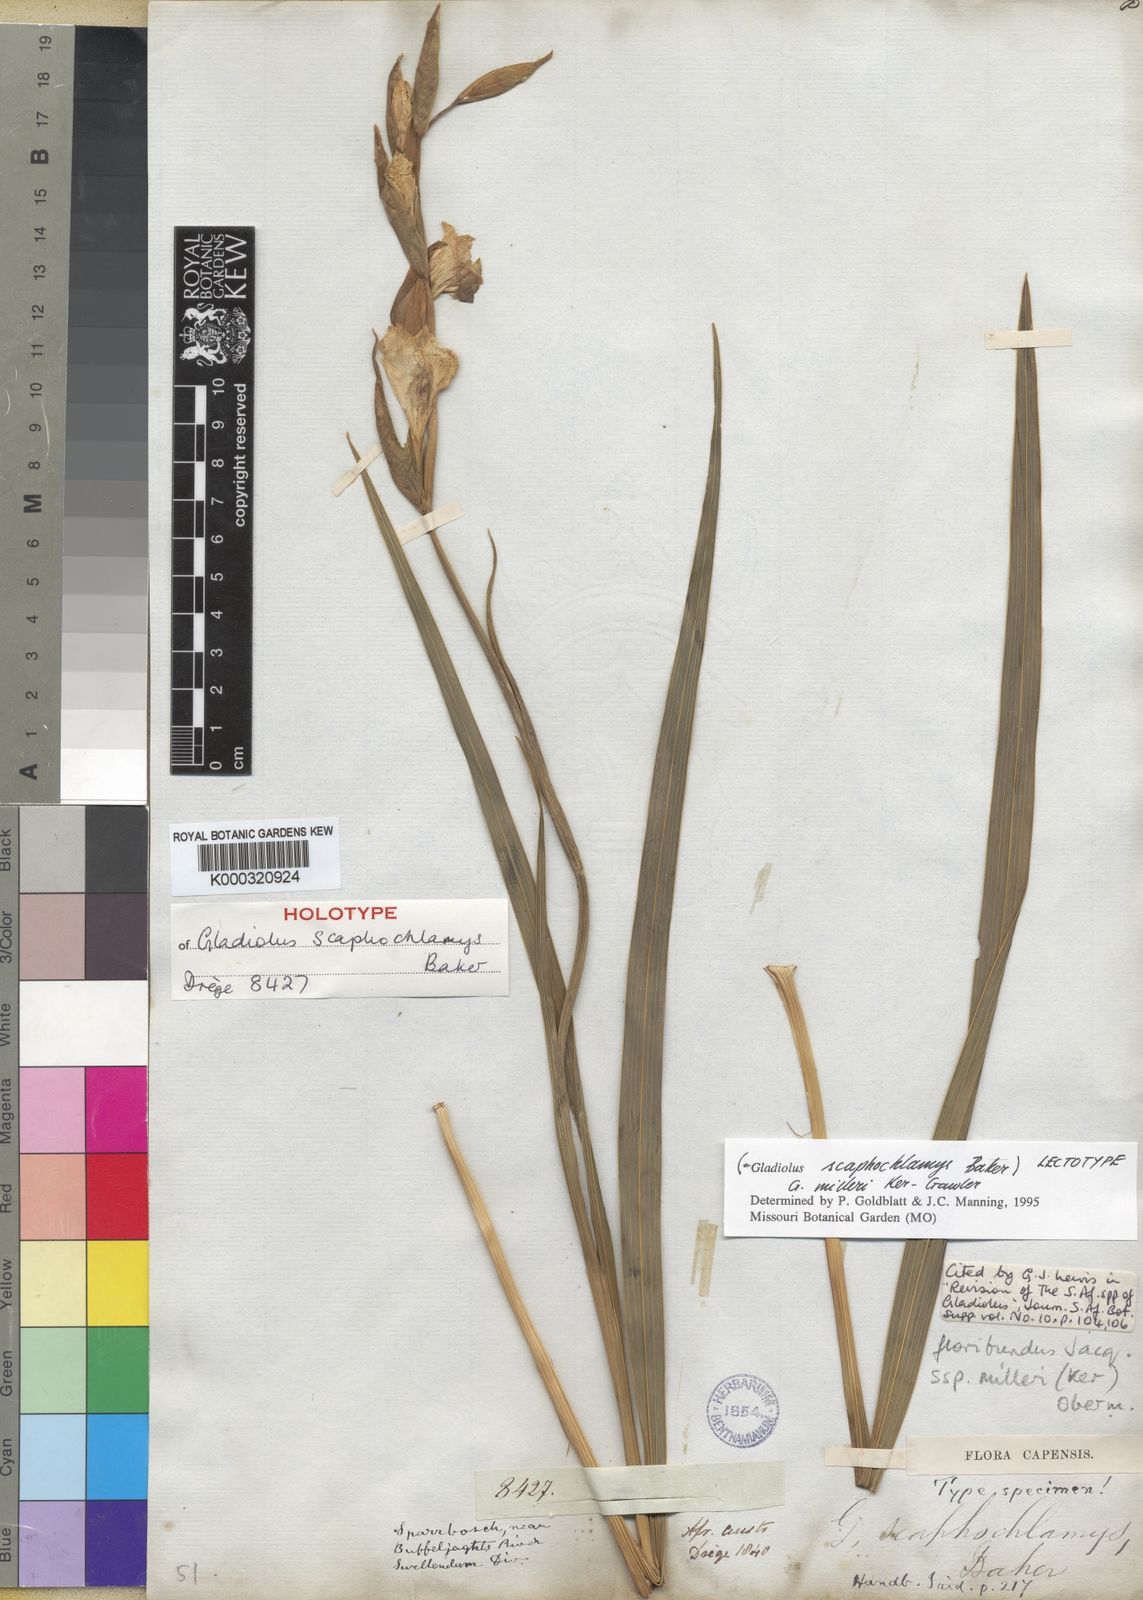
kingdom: Plantae
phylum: Tracheophyta
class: Liliopsida
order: Asparagales
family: Iridaceae
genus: Gladiolus
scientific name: Gladiolus grandiflorus
